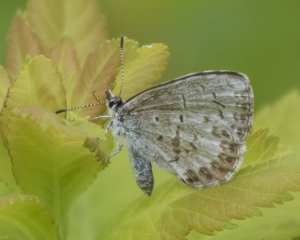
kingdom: Animalia
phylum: Arthropoda
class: Insecta
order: Lepidoptera
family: Lycaenidae
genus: Celastrina
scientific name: Celastrina
